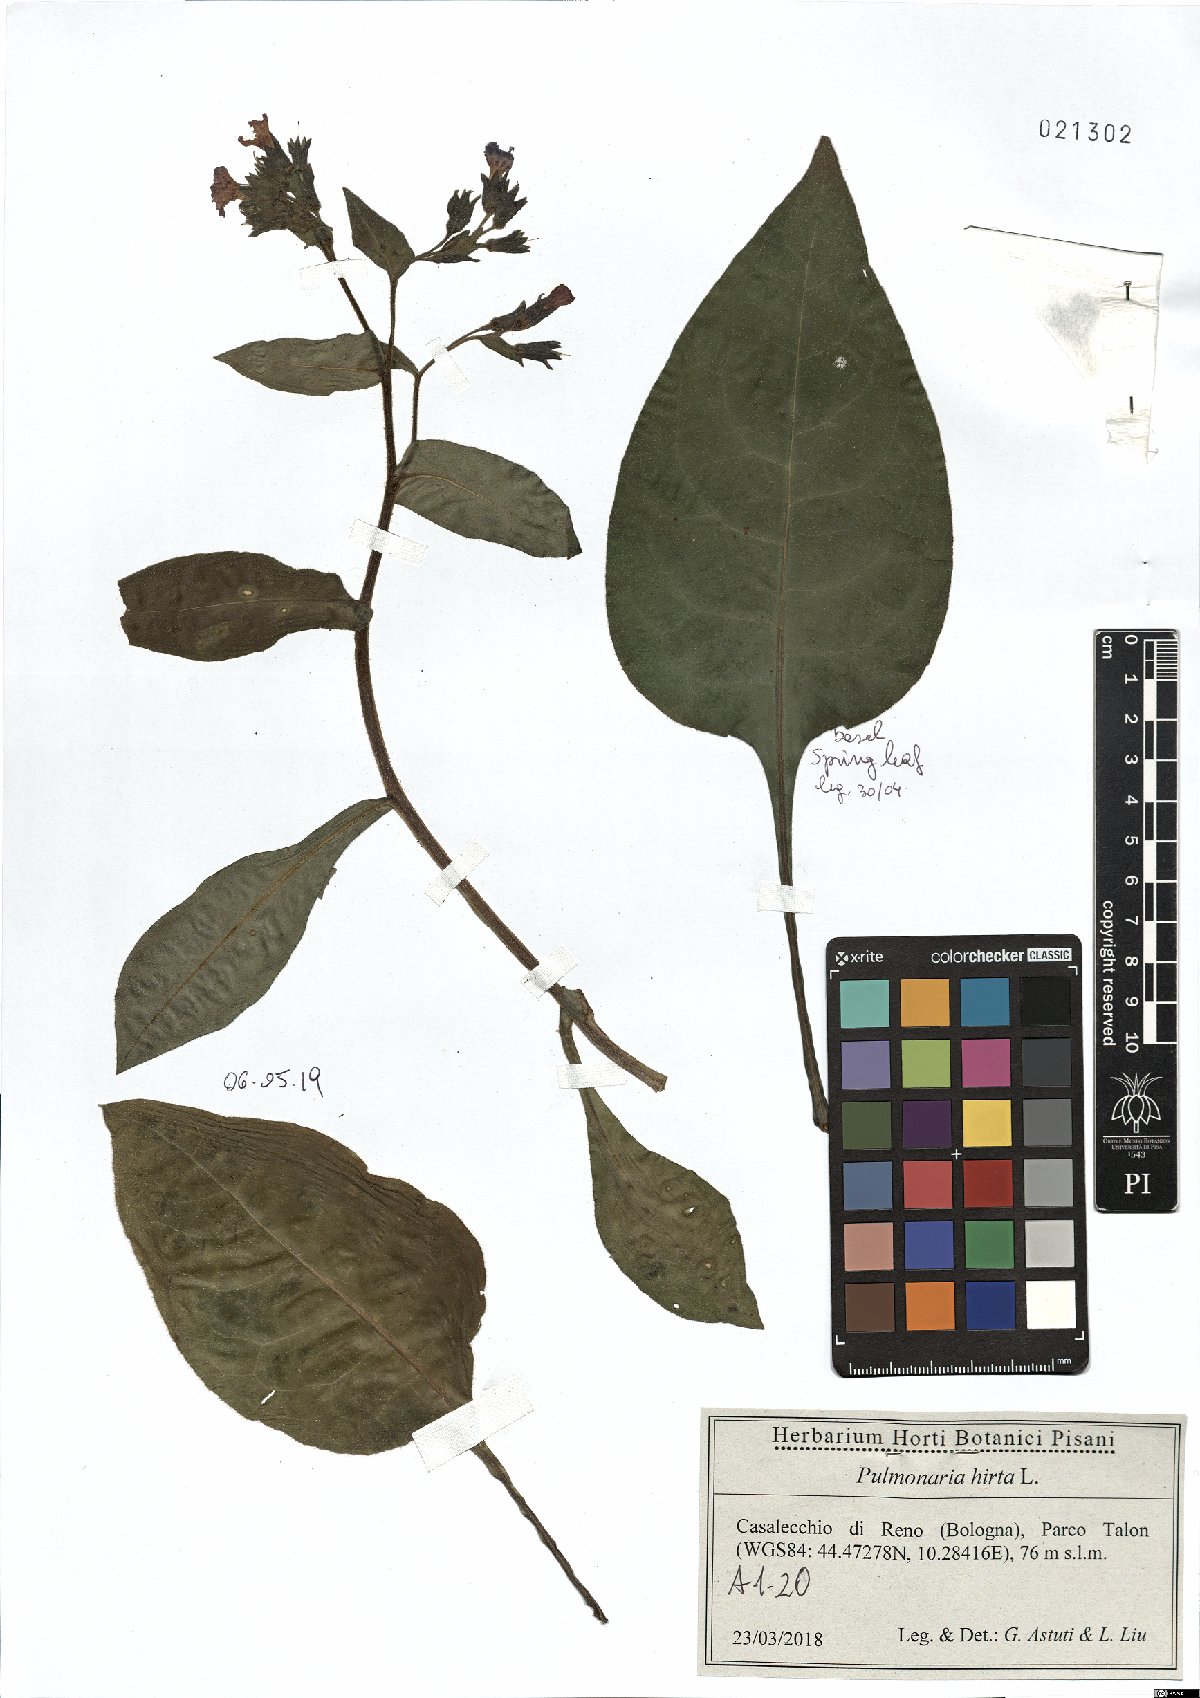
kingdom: Plantae
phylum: Tracheophyta
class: Magnoliopsida
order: Boraginales
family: Boraginaceae
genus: Pulmonaria
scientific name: Pulmonaria hirta
